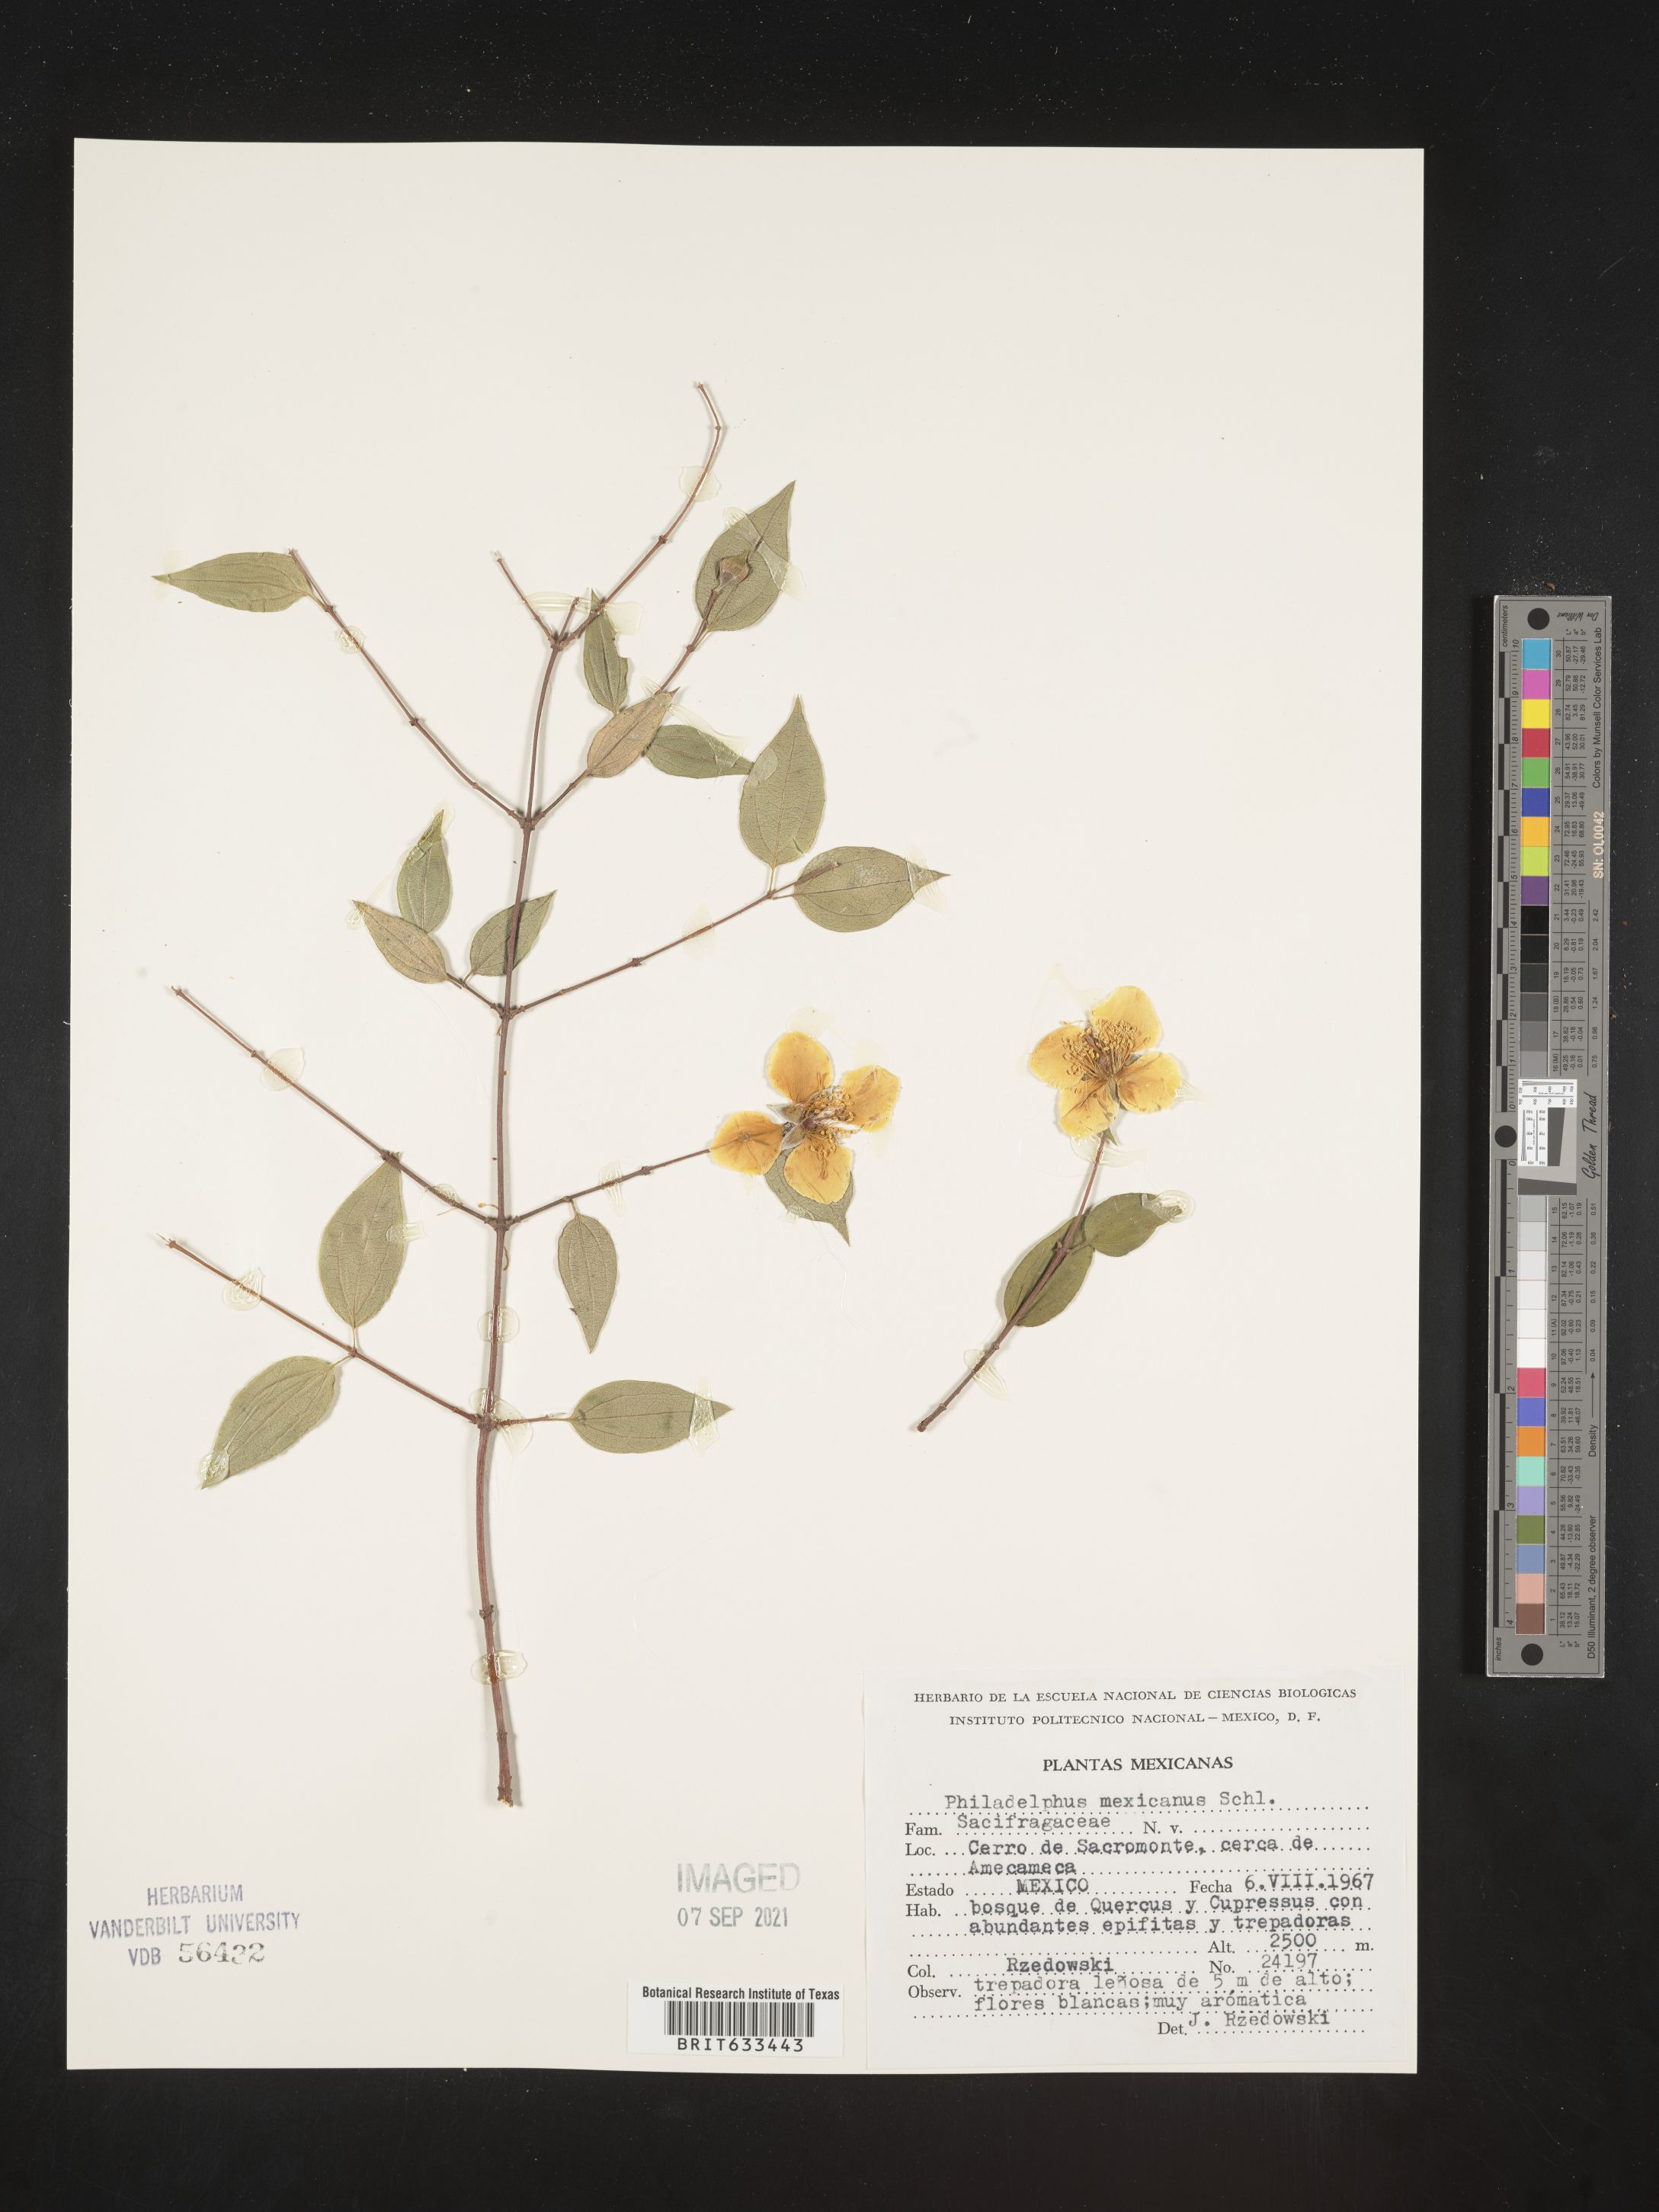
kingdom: Plantae
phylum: Tracheophyta
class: Magnoliopsida
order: Cornales
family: Hydrangeaceae
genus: Philadelphus
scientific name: Philadelphus
